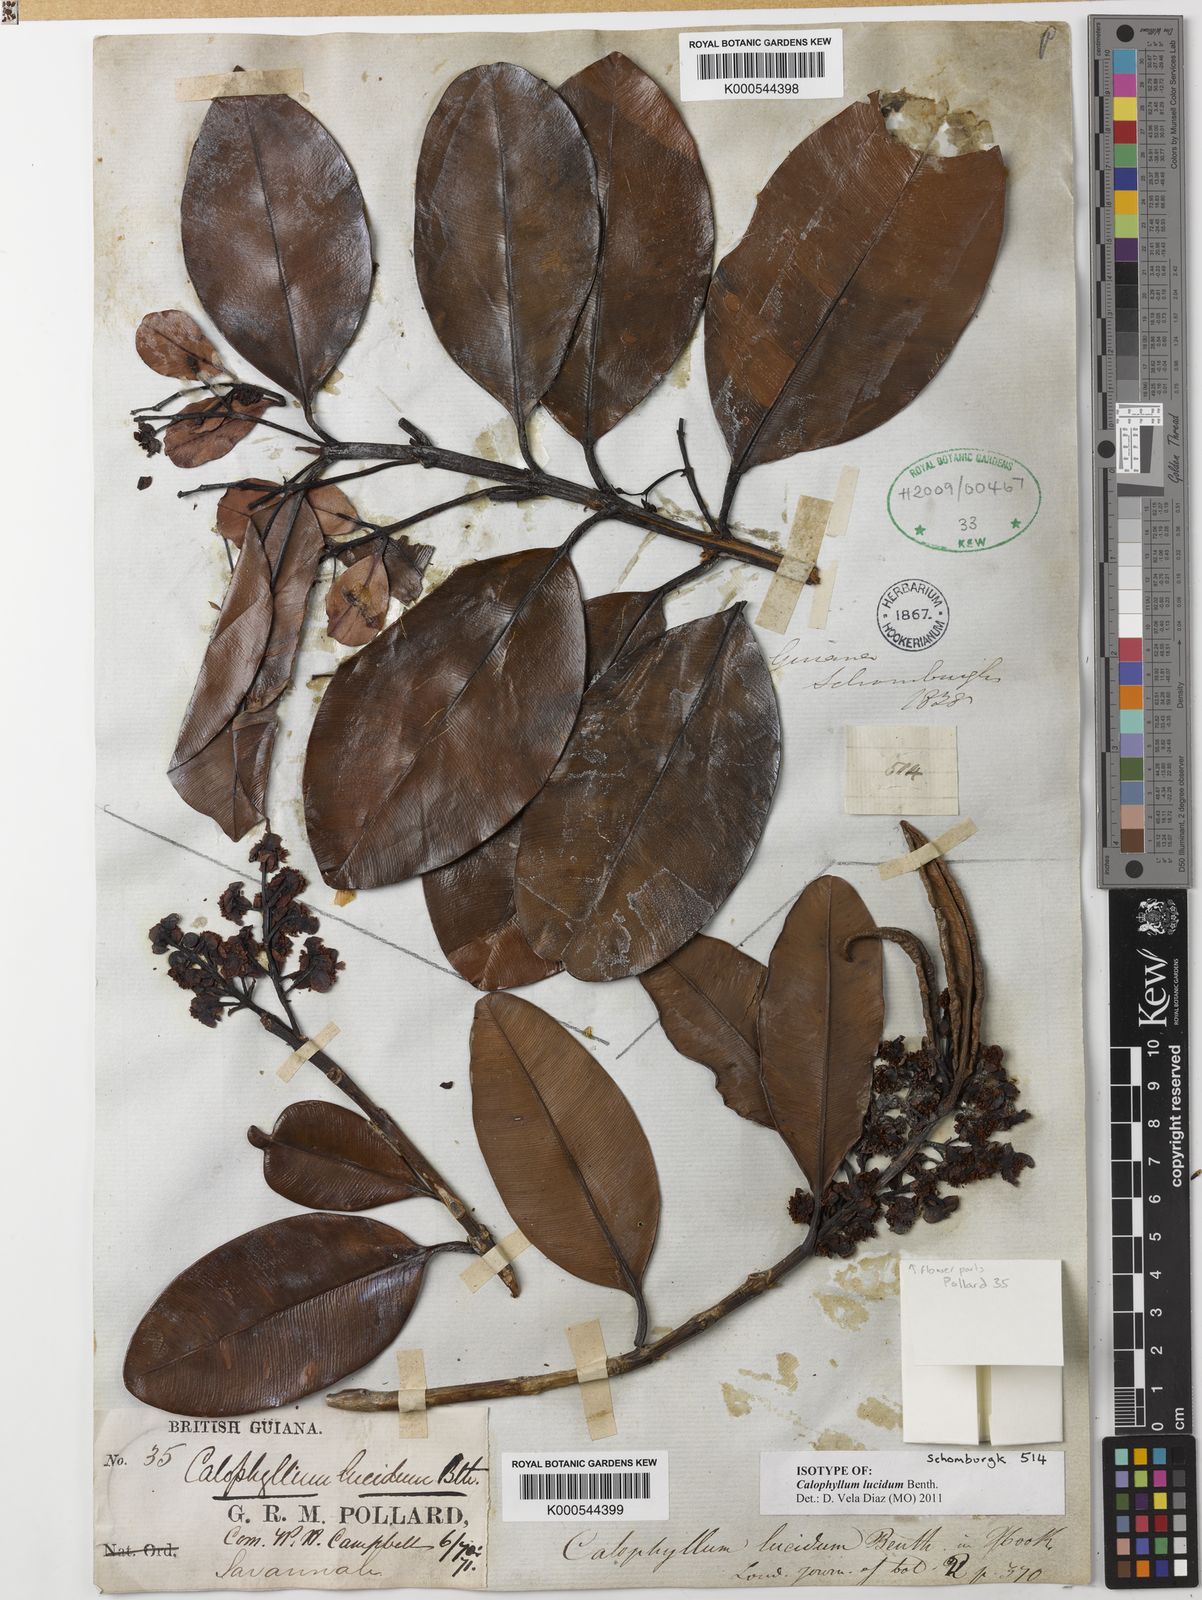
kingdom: Plantae
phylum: Tracheophyta
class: Magnoliopsida
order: Malpighiales
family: Calophyllaceae
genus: Calophyllum
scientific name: Calophyllum brasiliense
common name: Santa maria
